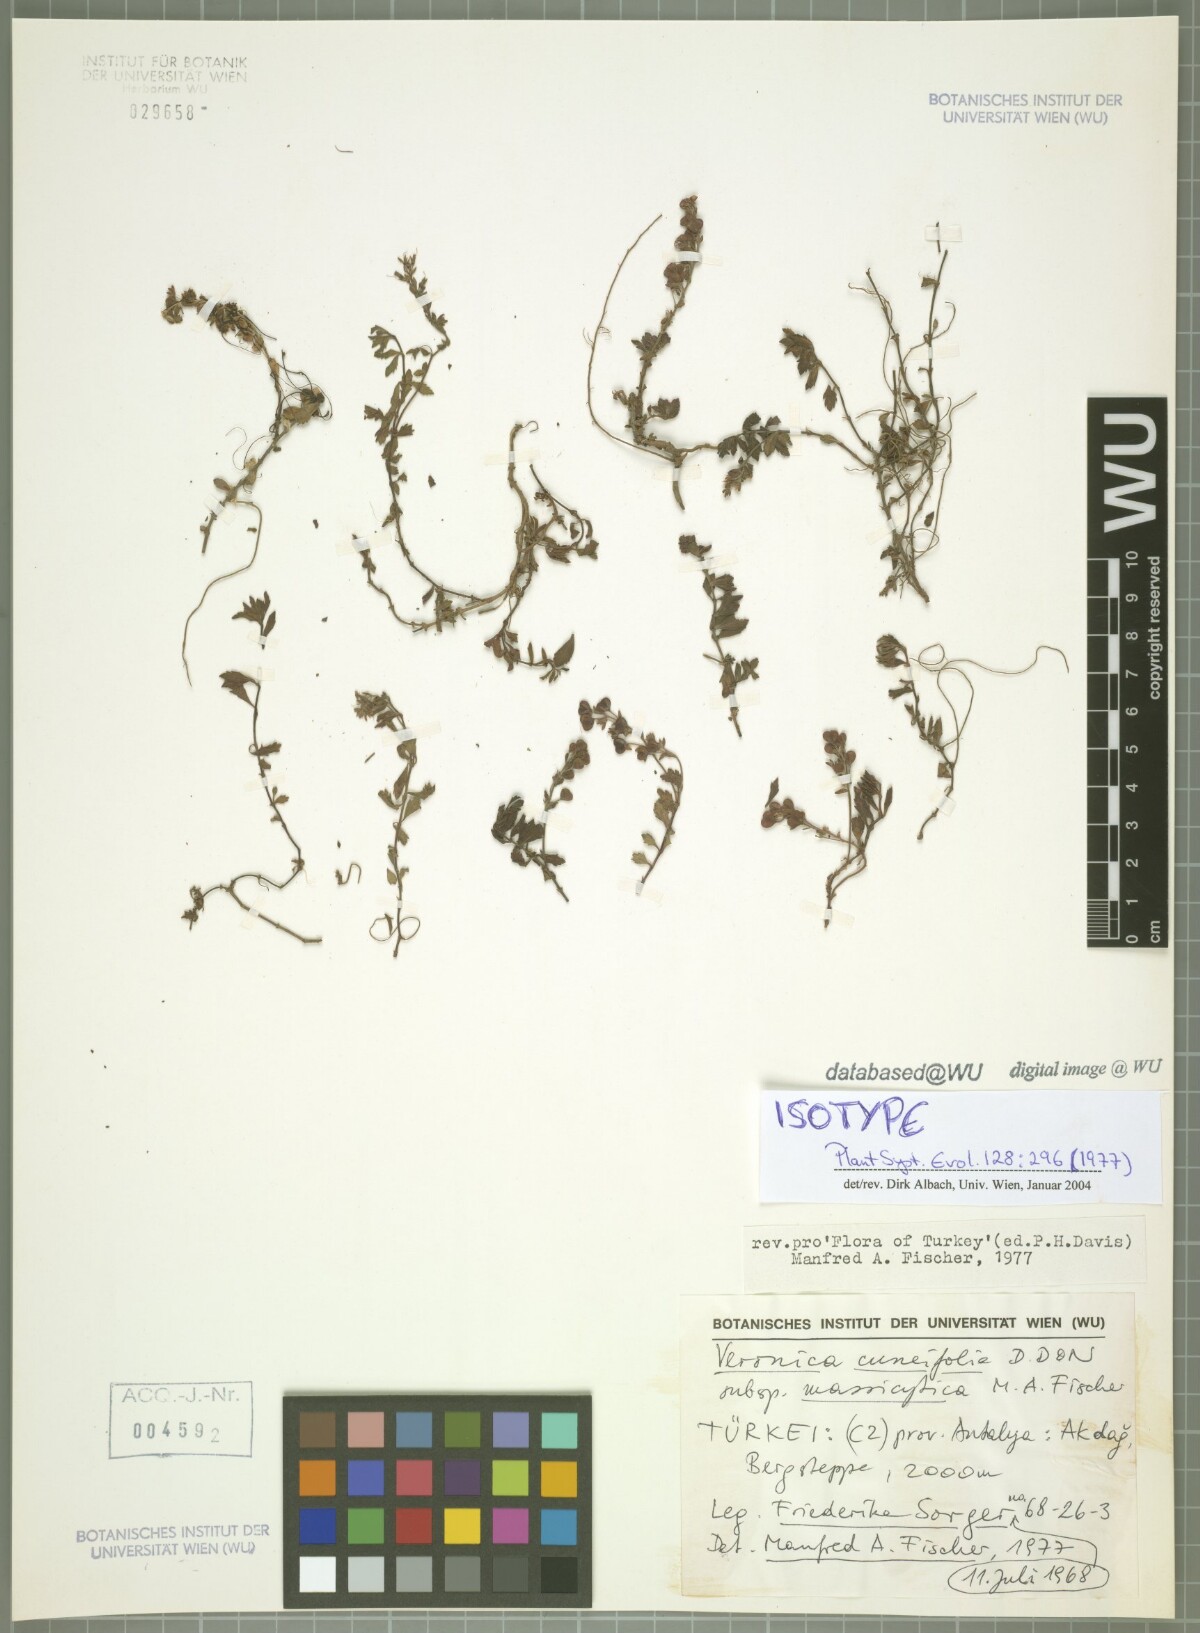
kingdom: Plantae
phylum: Tracheophyta
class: Magnoliopsida
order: Lamiales
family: Plantaginaceae
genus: Veronica
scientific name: Veronica cuneifolia
